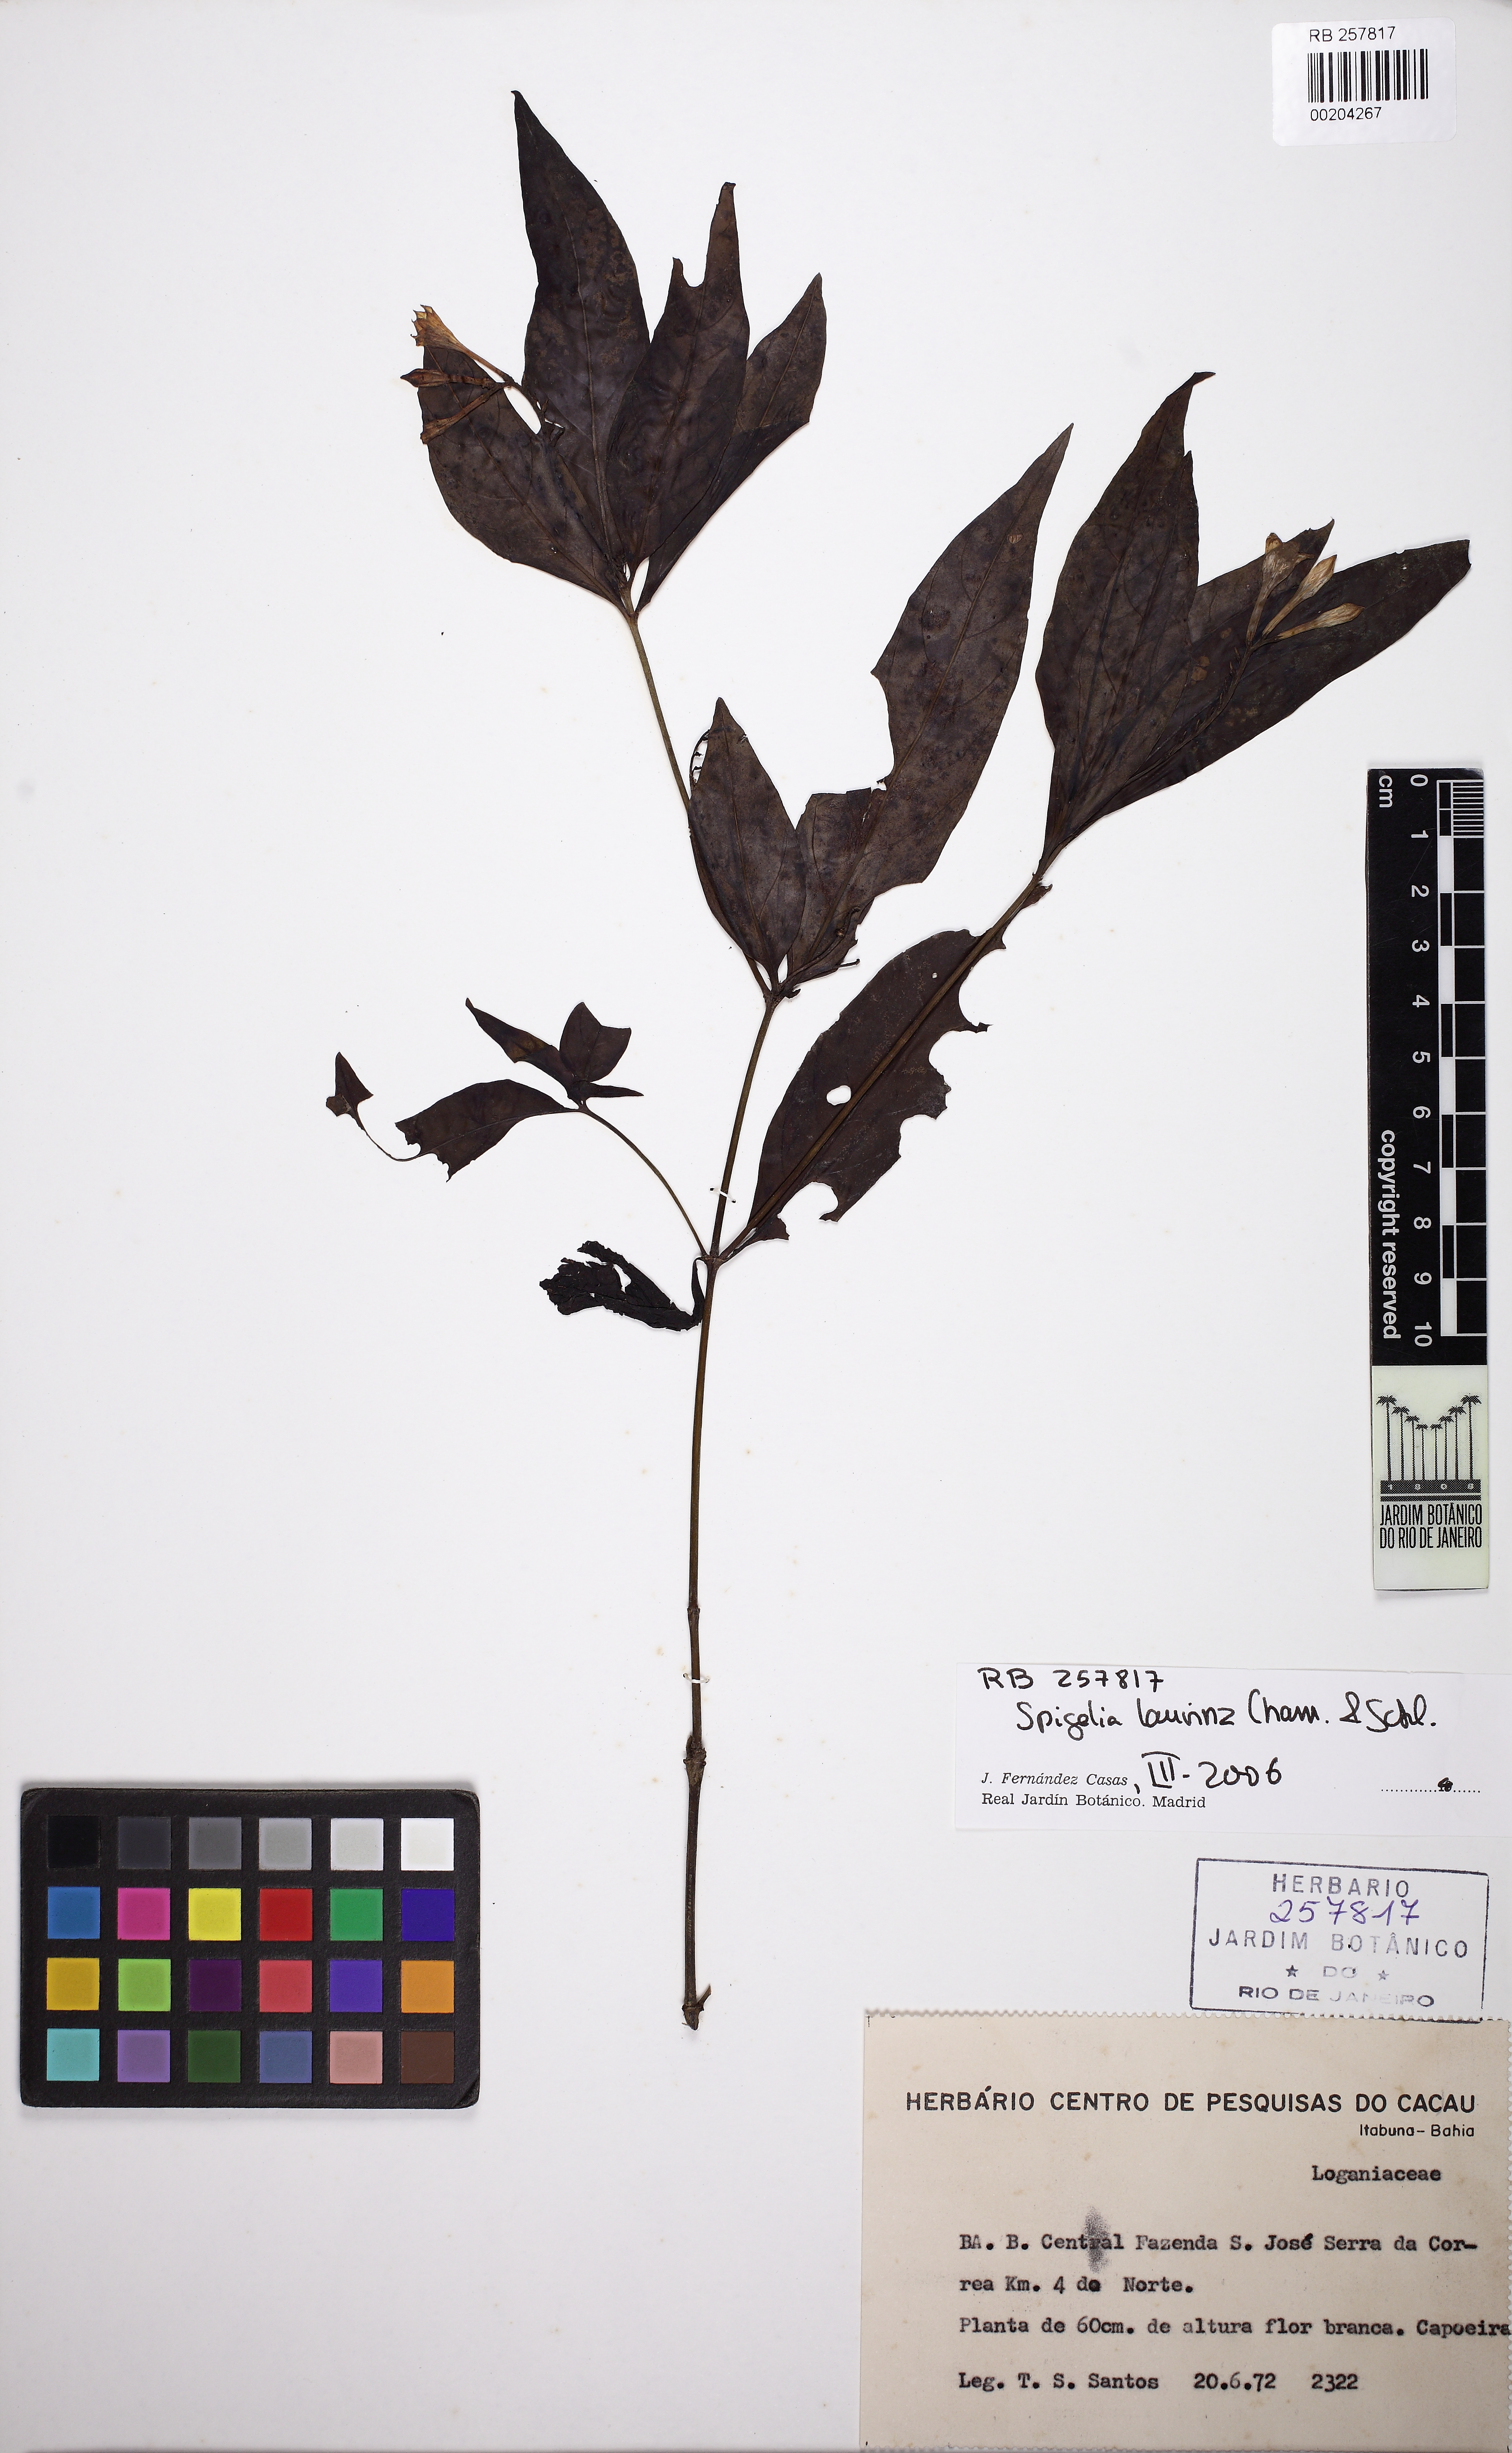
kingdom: Plantae
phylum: Tracheophyta
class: Magnoliopsida
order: Gentianales
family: Loganiaceae
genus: Spigelia
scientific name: Spigelia laurina
